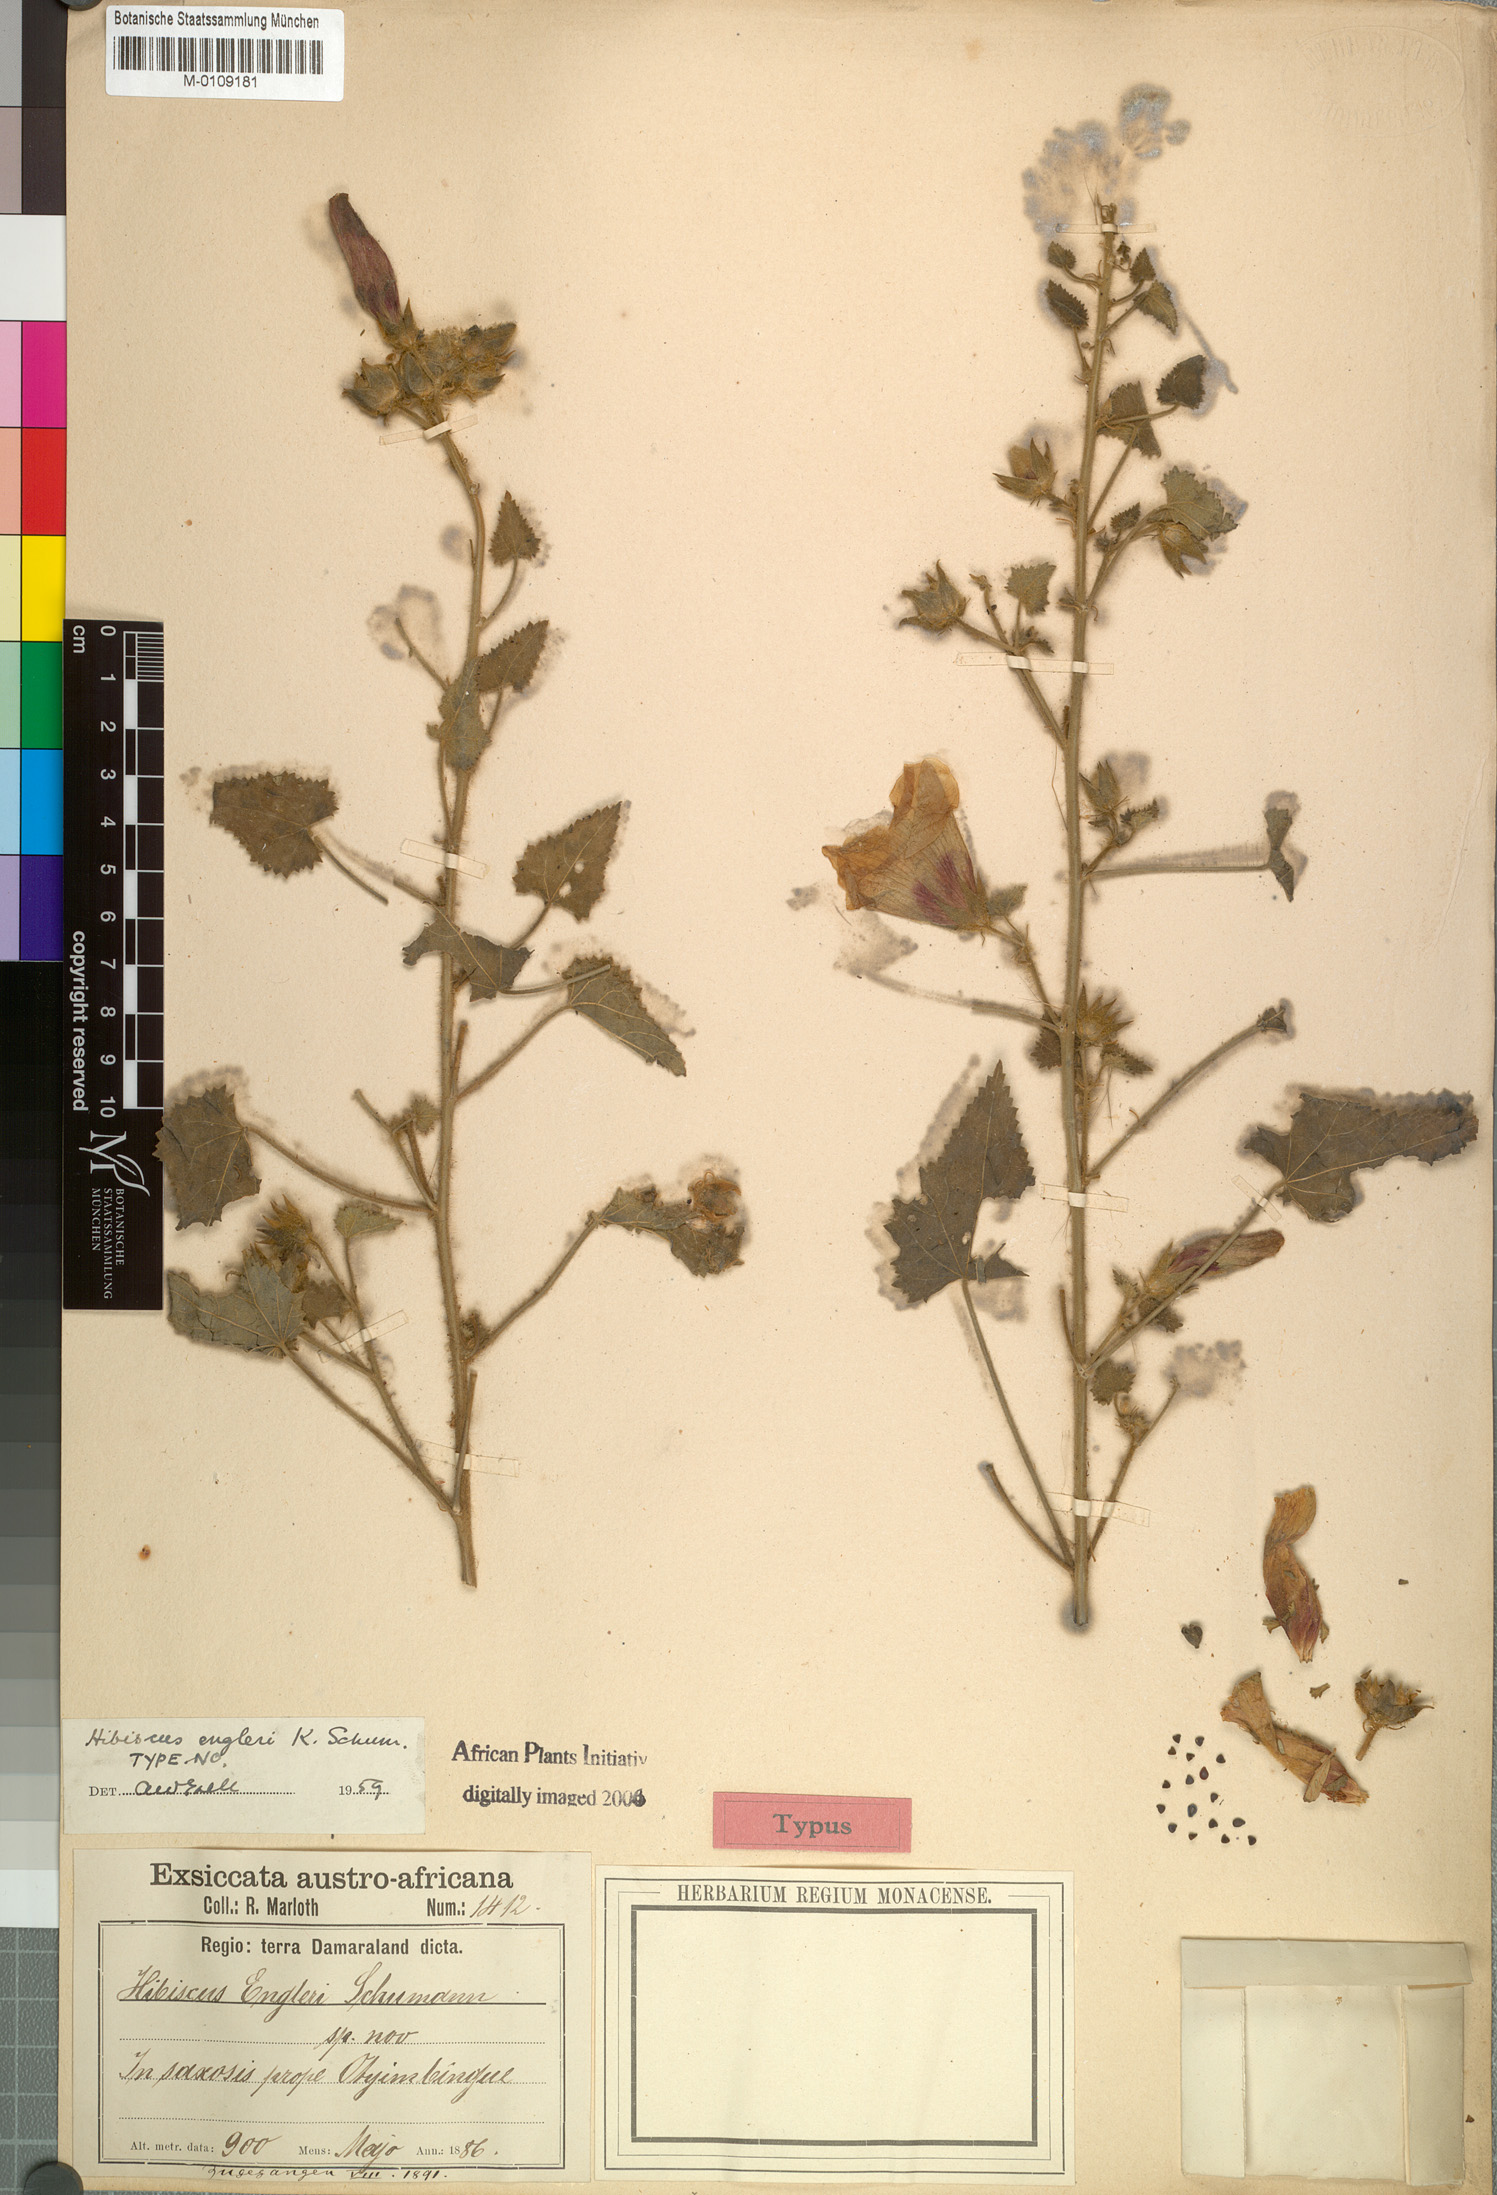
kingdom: Plantae
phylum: Tracheophyta
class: Magnoliopsida
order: Malvales
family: Malvaceae
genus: Hibiscus
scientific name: Hibiscus engleri
